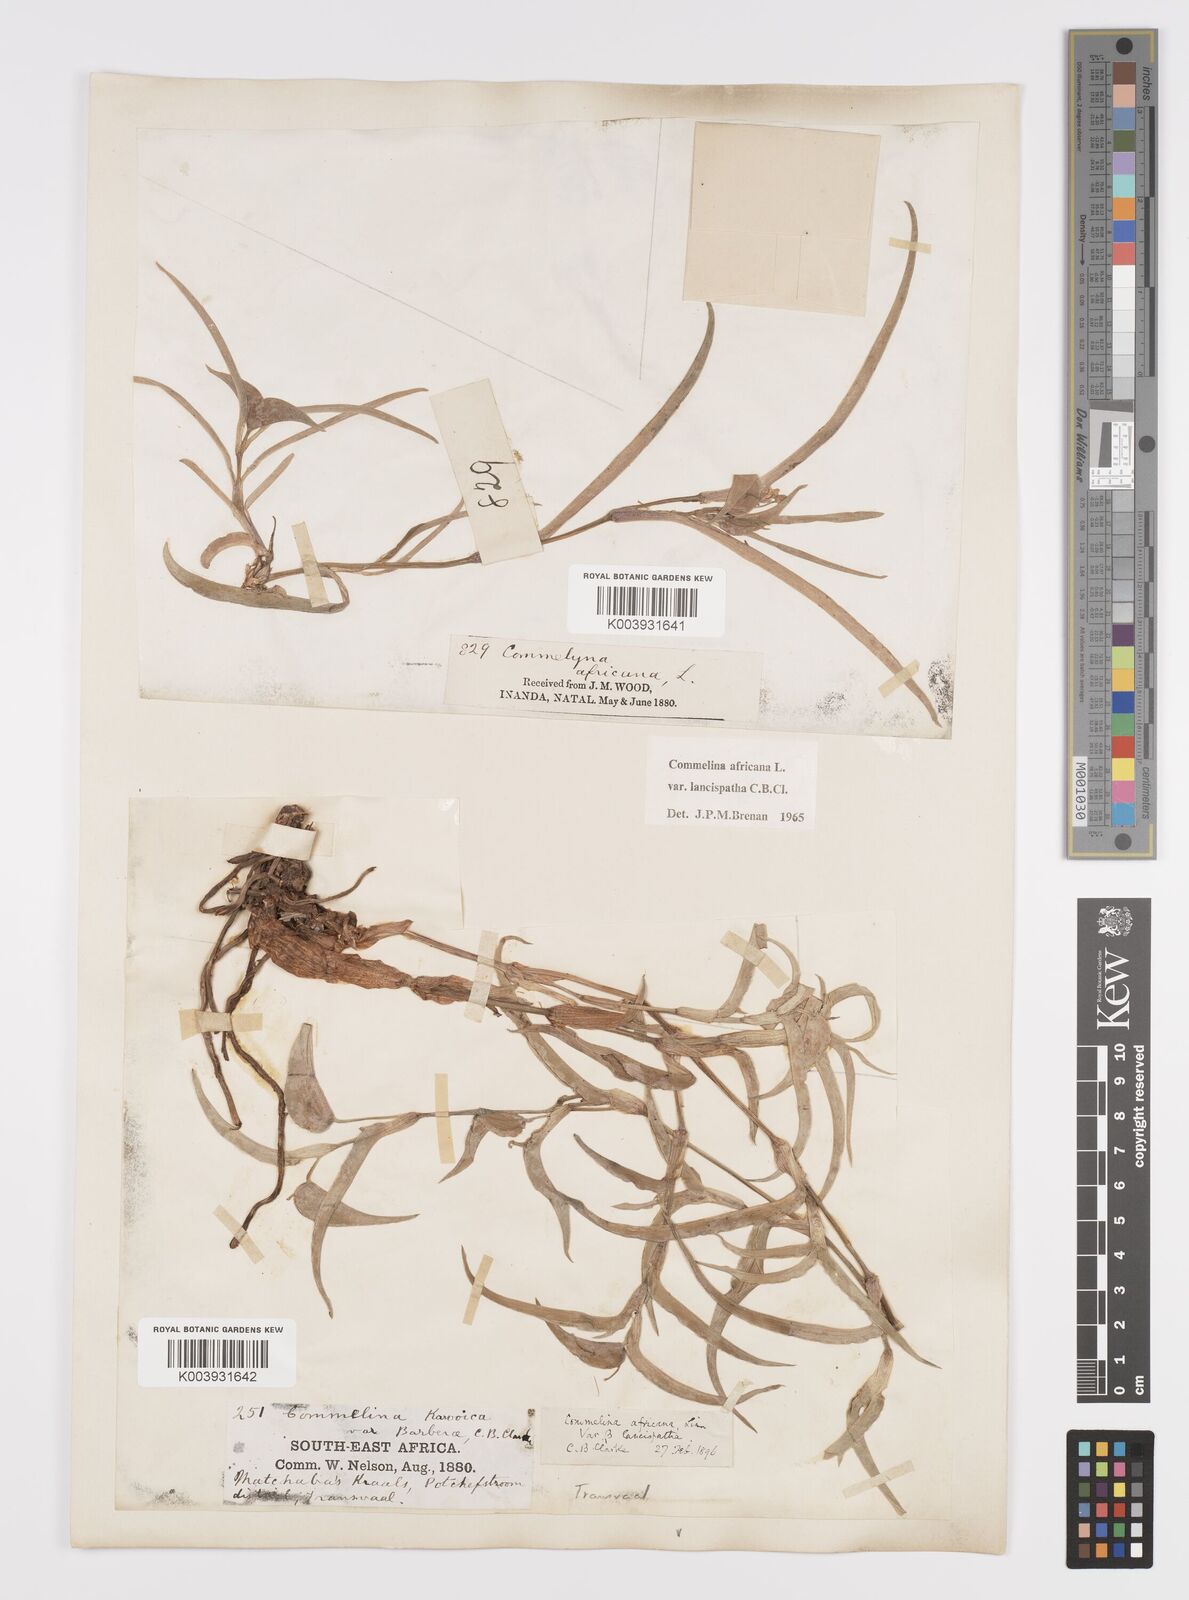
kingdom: Plantae
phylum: Tracheophyta
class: Liliopsida
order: Commelinales
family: Commelinaceae
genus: Commelina
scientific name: Commelina africana
